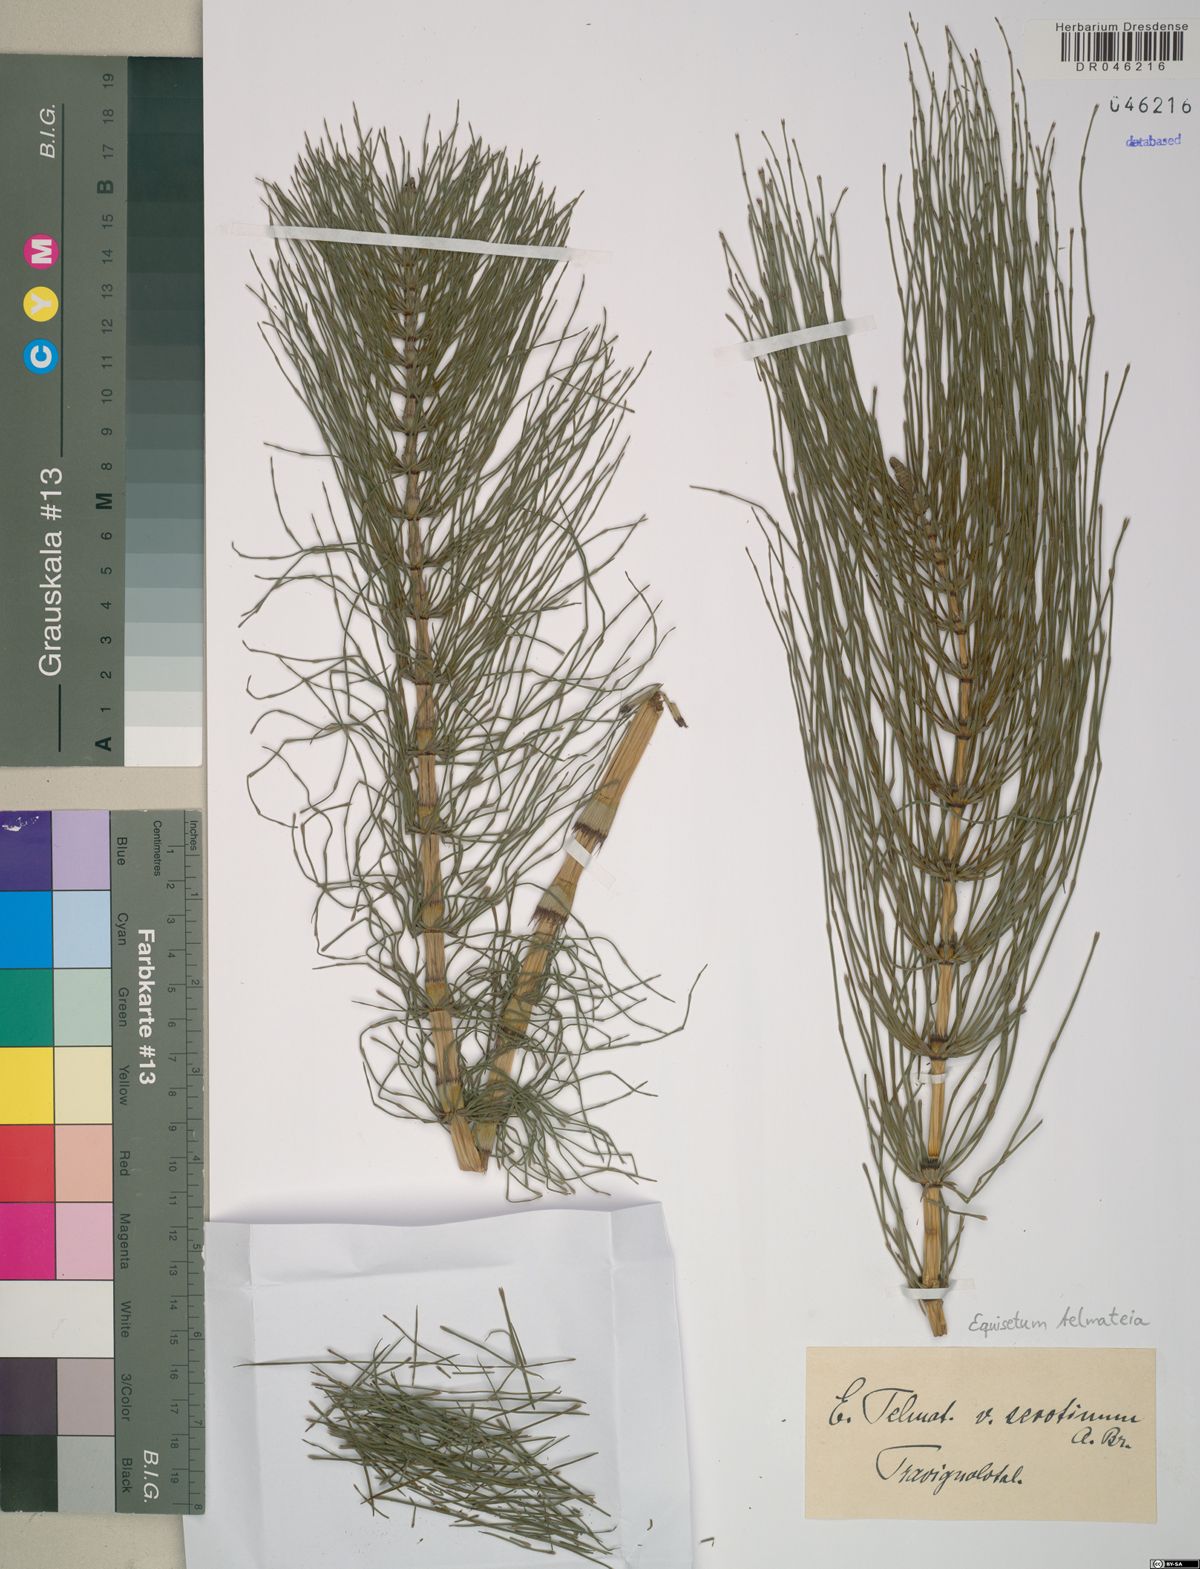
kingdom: Plantae
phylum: Tracheophyta
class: Polypodiopsida
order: Equisetales
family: Equisetaceae
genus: Equisetum
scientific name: Equisetum telmateia
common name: Great horsetail
